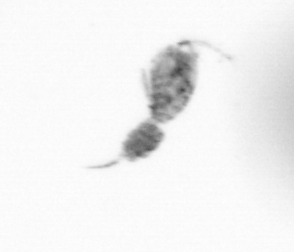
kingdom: Animalia
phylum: Arthropoda
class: Copepoda
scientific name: Copepoda
